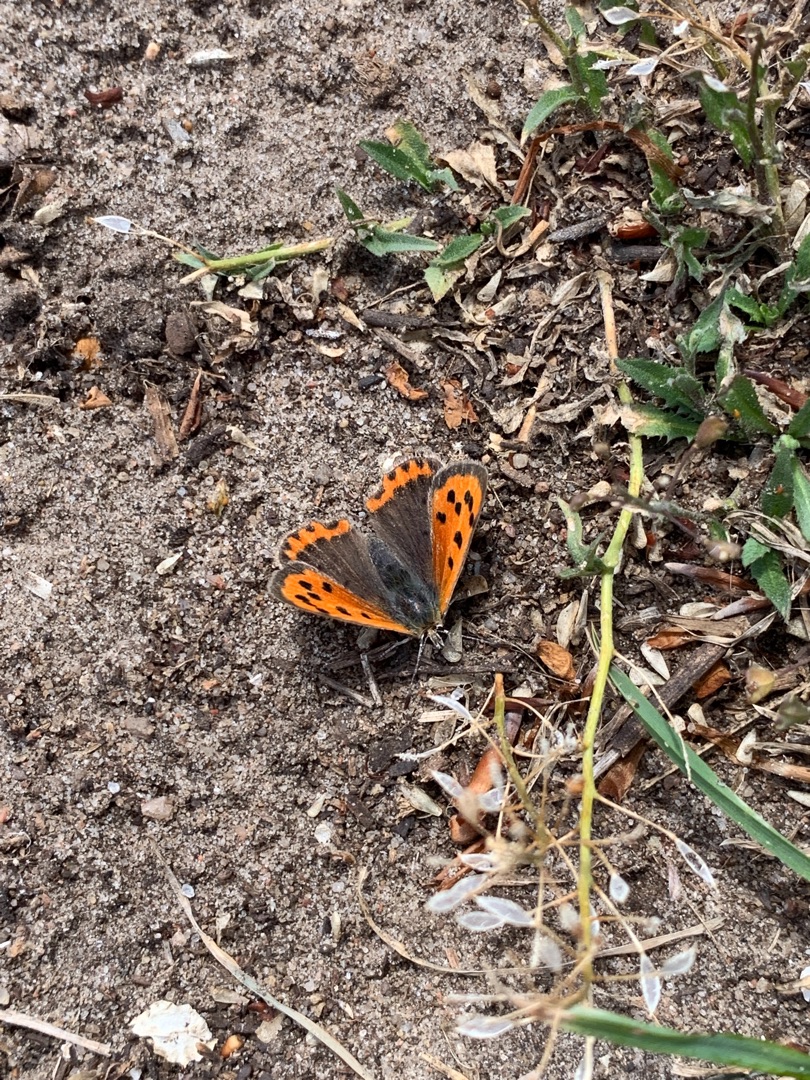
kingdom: Animalia
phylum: Arthropoda
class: Insecta
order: Lepidoptera
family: Lycaenidae
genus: Lycaena
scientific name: Lycaena phlaeas
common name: Lille ildfugl
